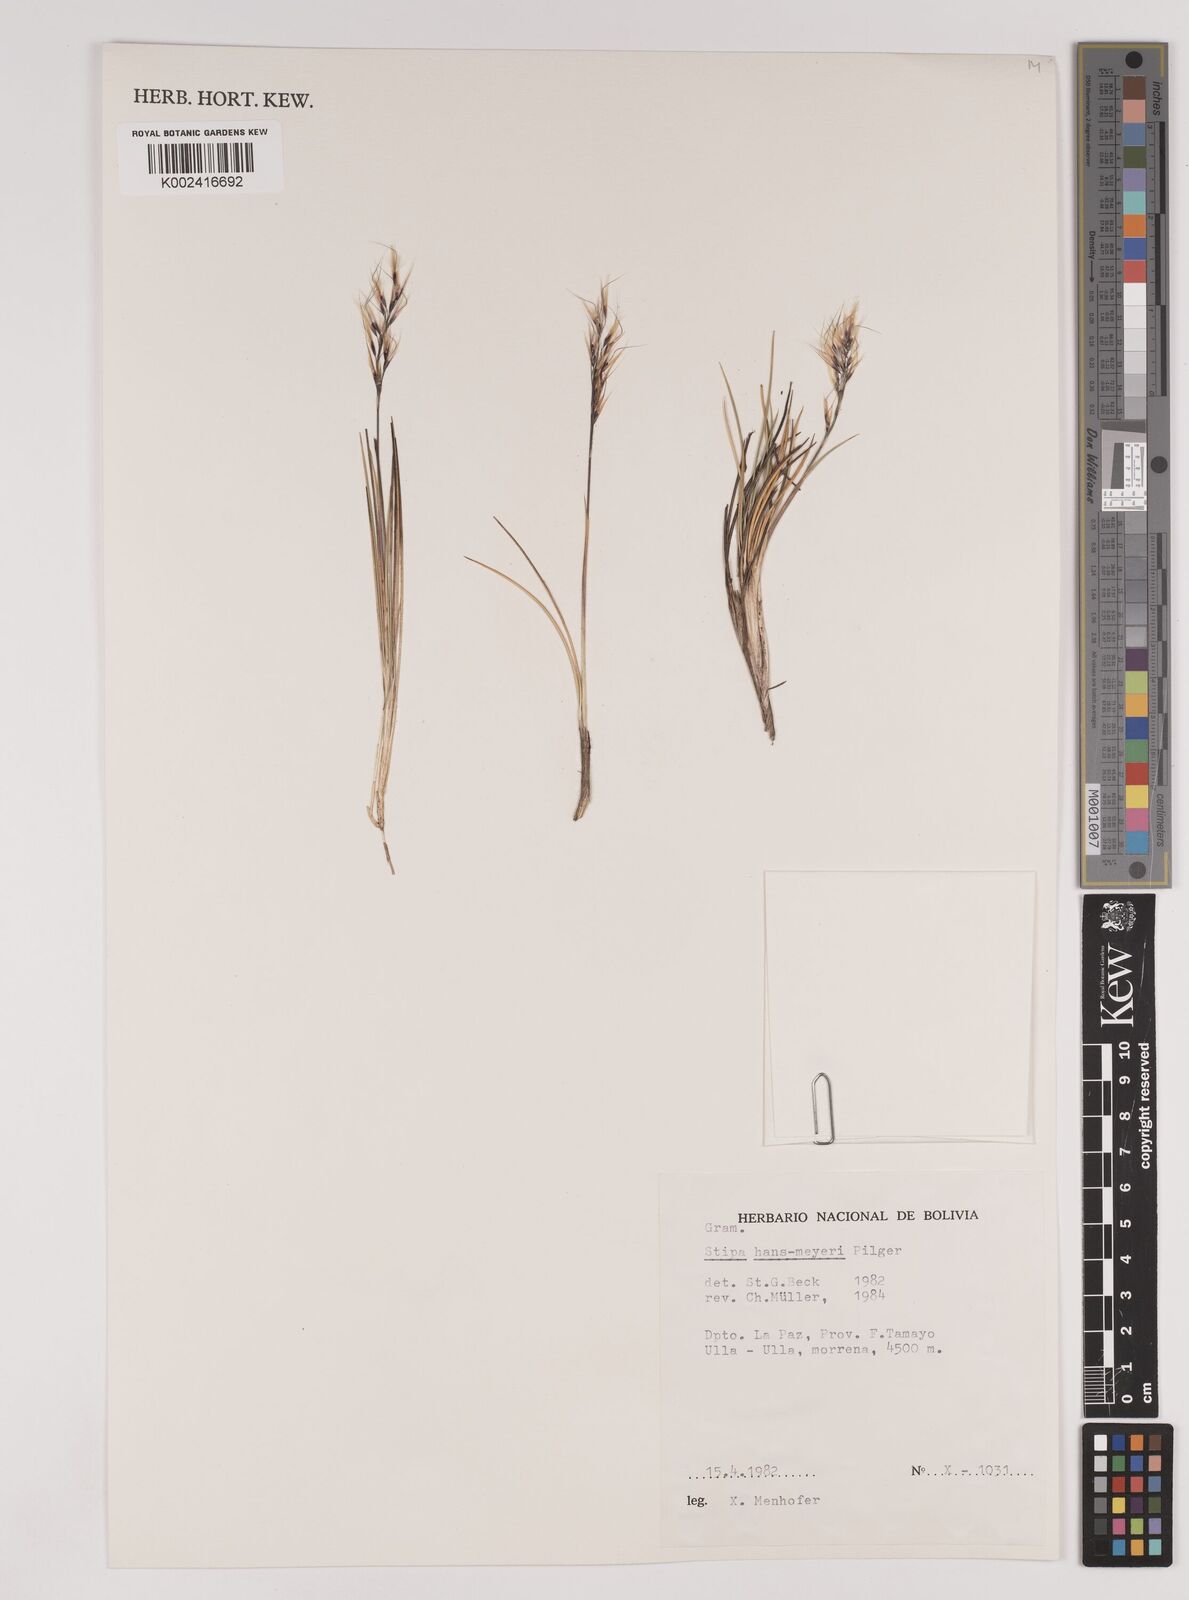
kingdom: Plantae
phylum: Tracheophyta
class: Liliopsida
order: Poales
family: Poaceae
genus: Stipa
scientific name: Stipa hans-meyeri
